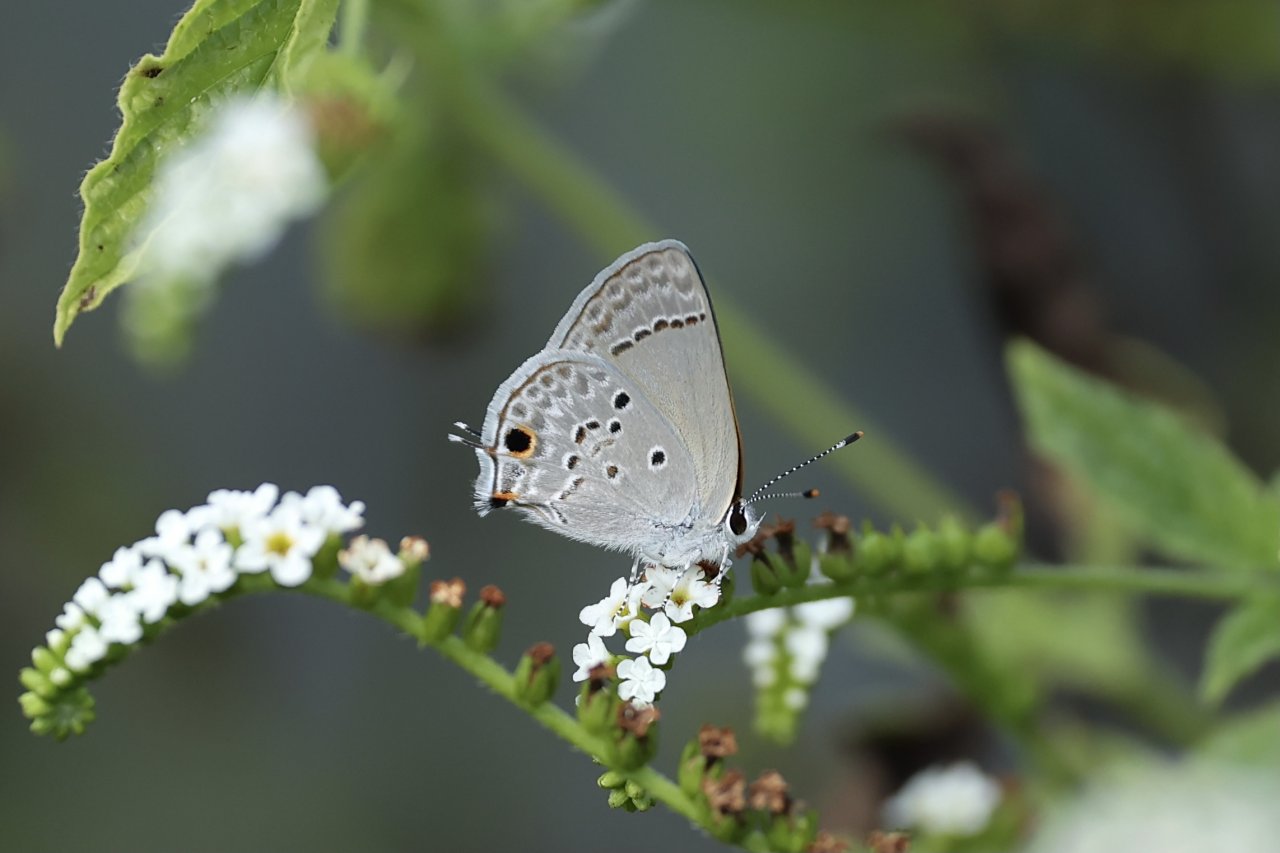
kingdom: Animalia
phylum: Arthropoda
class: Insecta
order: Lepidoptera
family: Lycaenidae
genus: Callicista
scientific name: Callicista columella
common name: Mallow Scrub-Hairstreak
